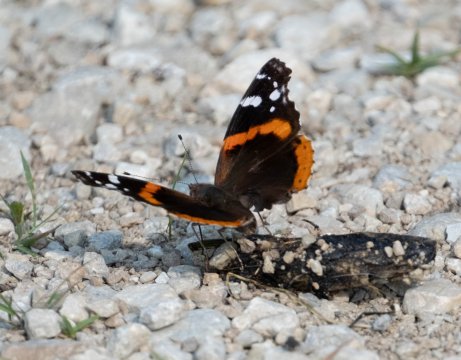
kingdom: Animalia
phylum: Arthropoda
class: Insecta
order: Lepidoptera
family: Nymphalidae
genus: Vanessa
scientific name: Vanessa atalanta
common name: Red Admiral
